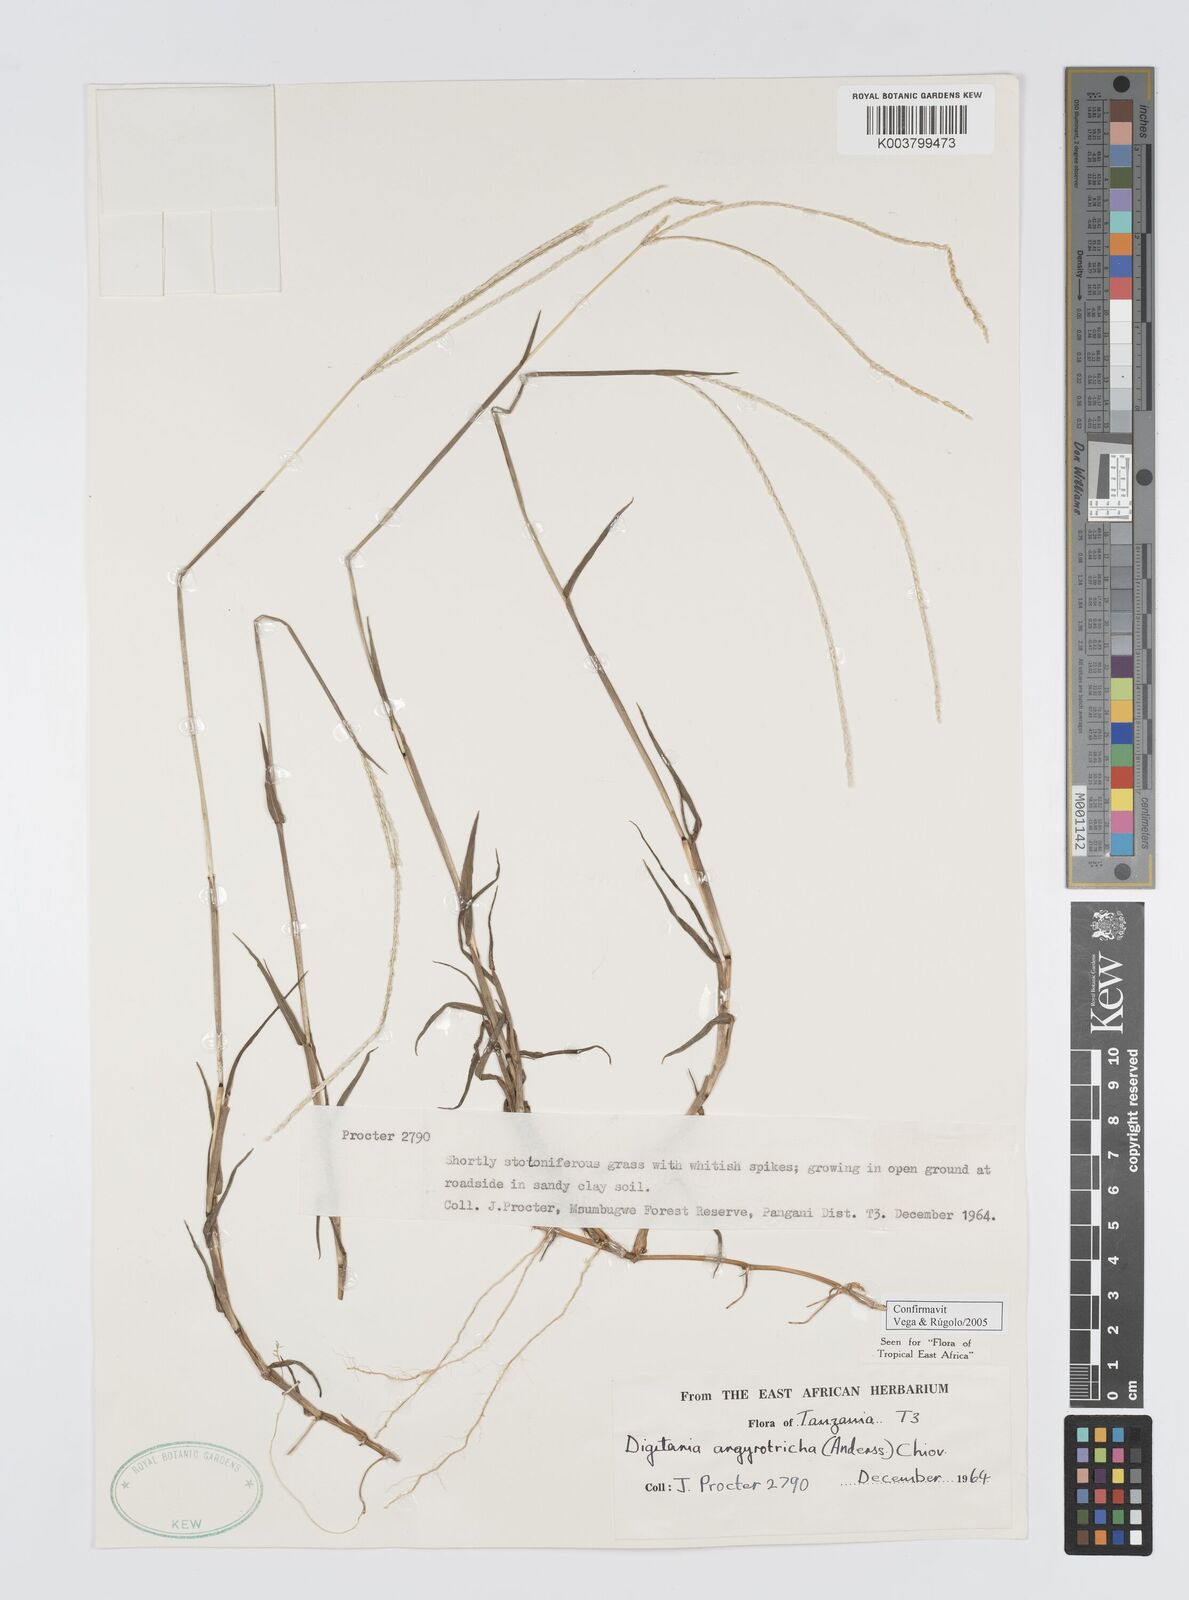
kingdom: Plantae
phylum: Tracheophyta
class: Liliopsida
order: Poales
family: Poaceae
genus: Digitaria
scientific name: Digitaria argyrotricha
